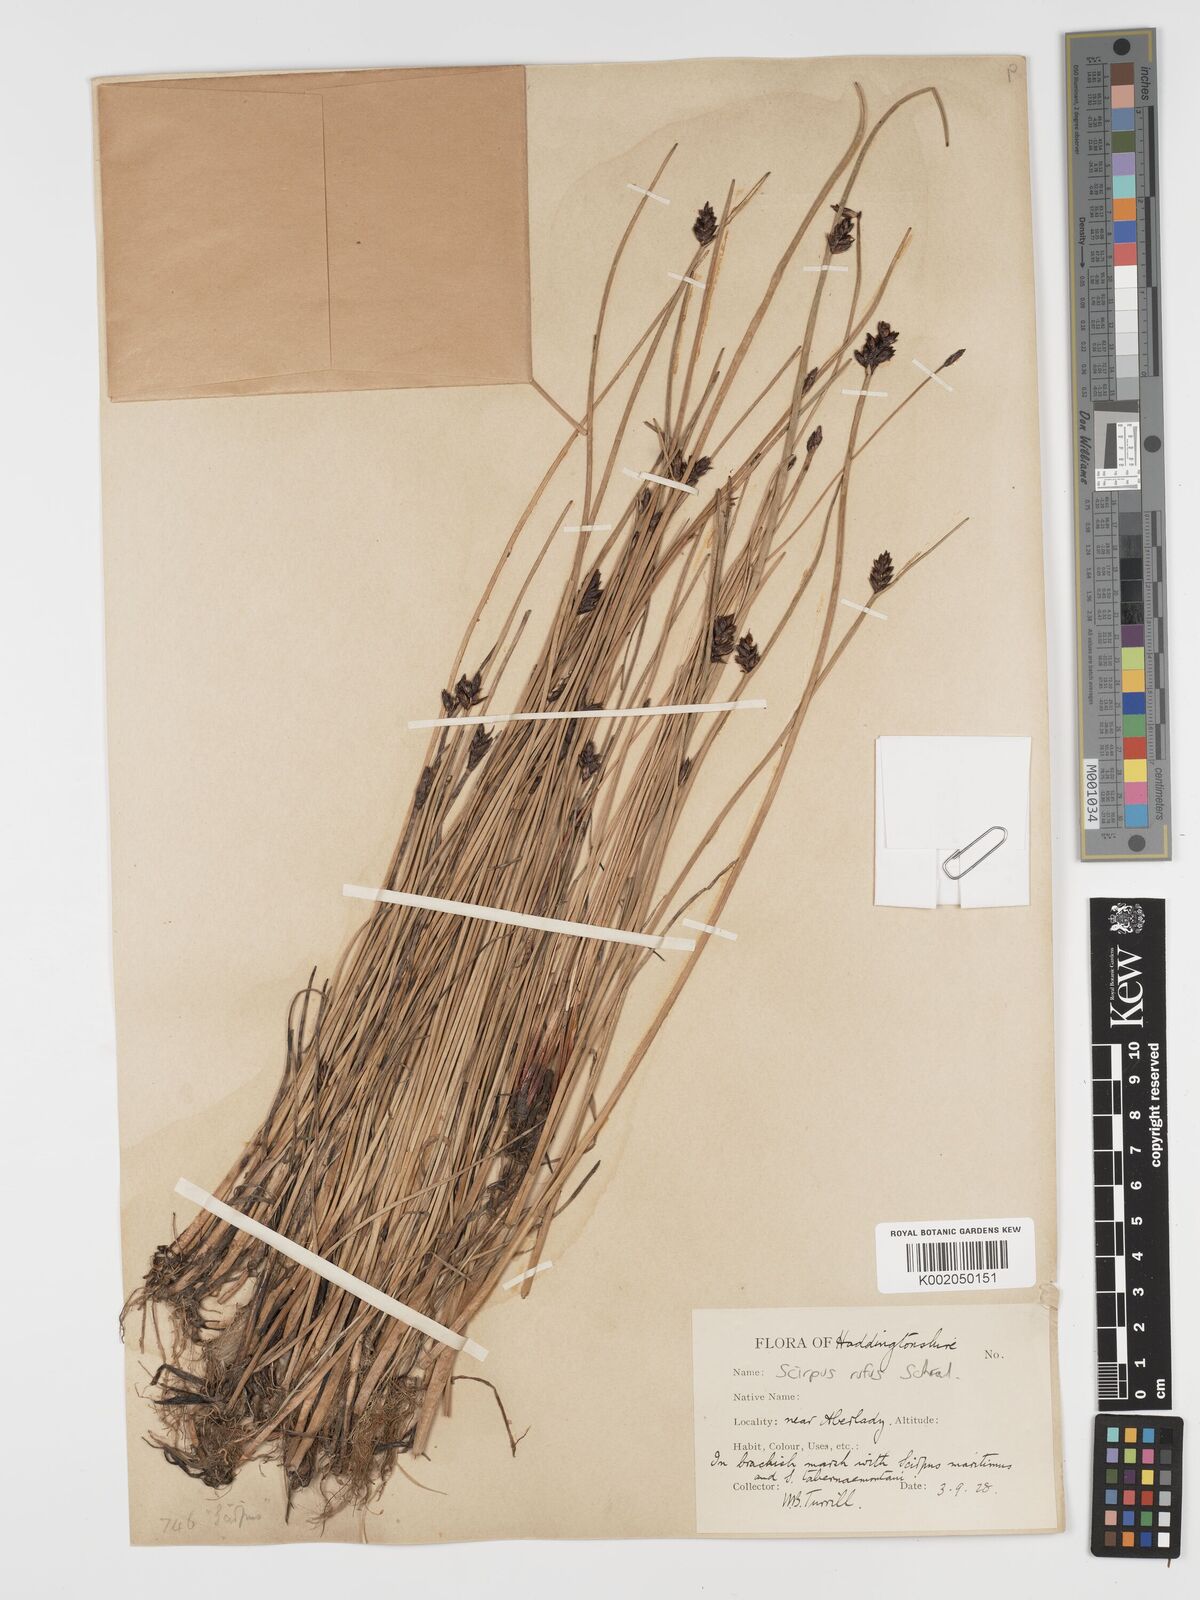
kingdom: Plantae
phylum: Tracheophyta
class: Liliopsida
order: Poales
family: Cyperaceae
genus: Blysmus
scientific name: Blysmus rufus
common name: Saltmarsh flat-sedge
